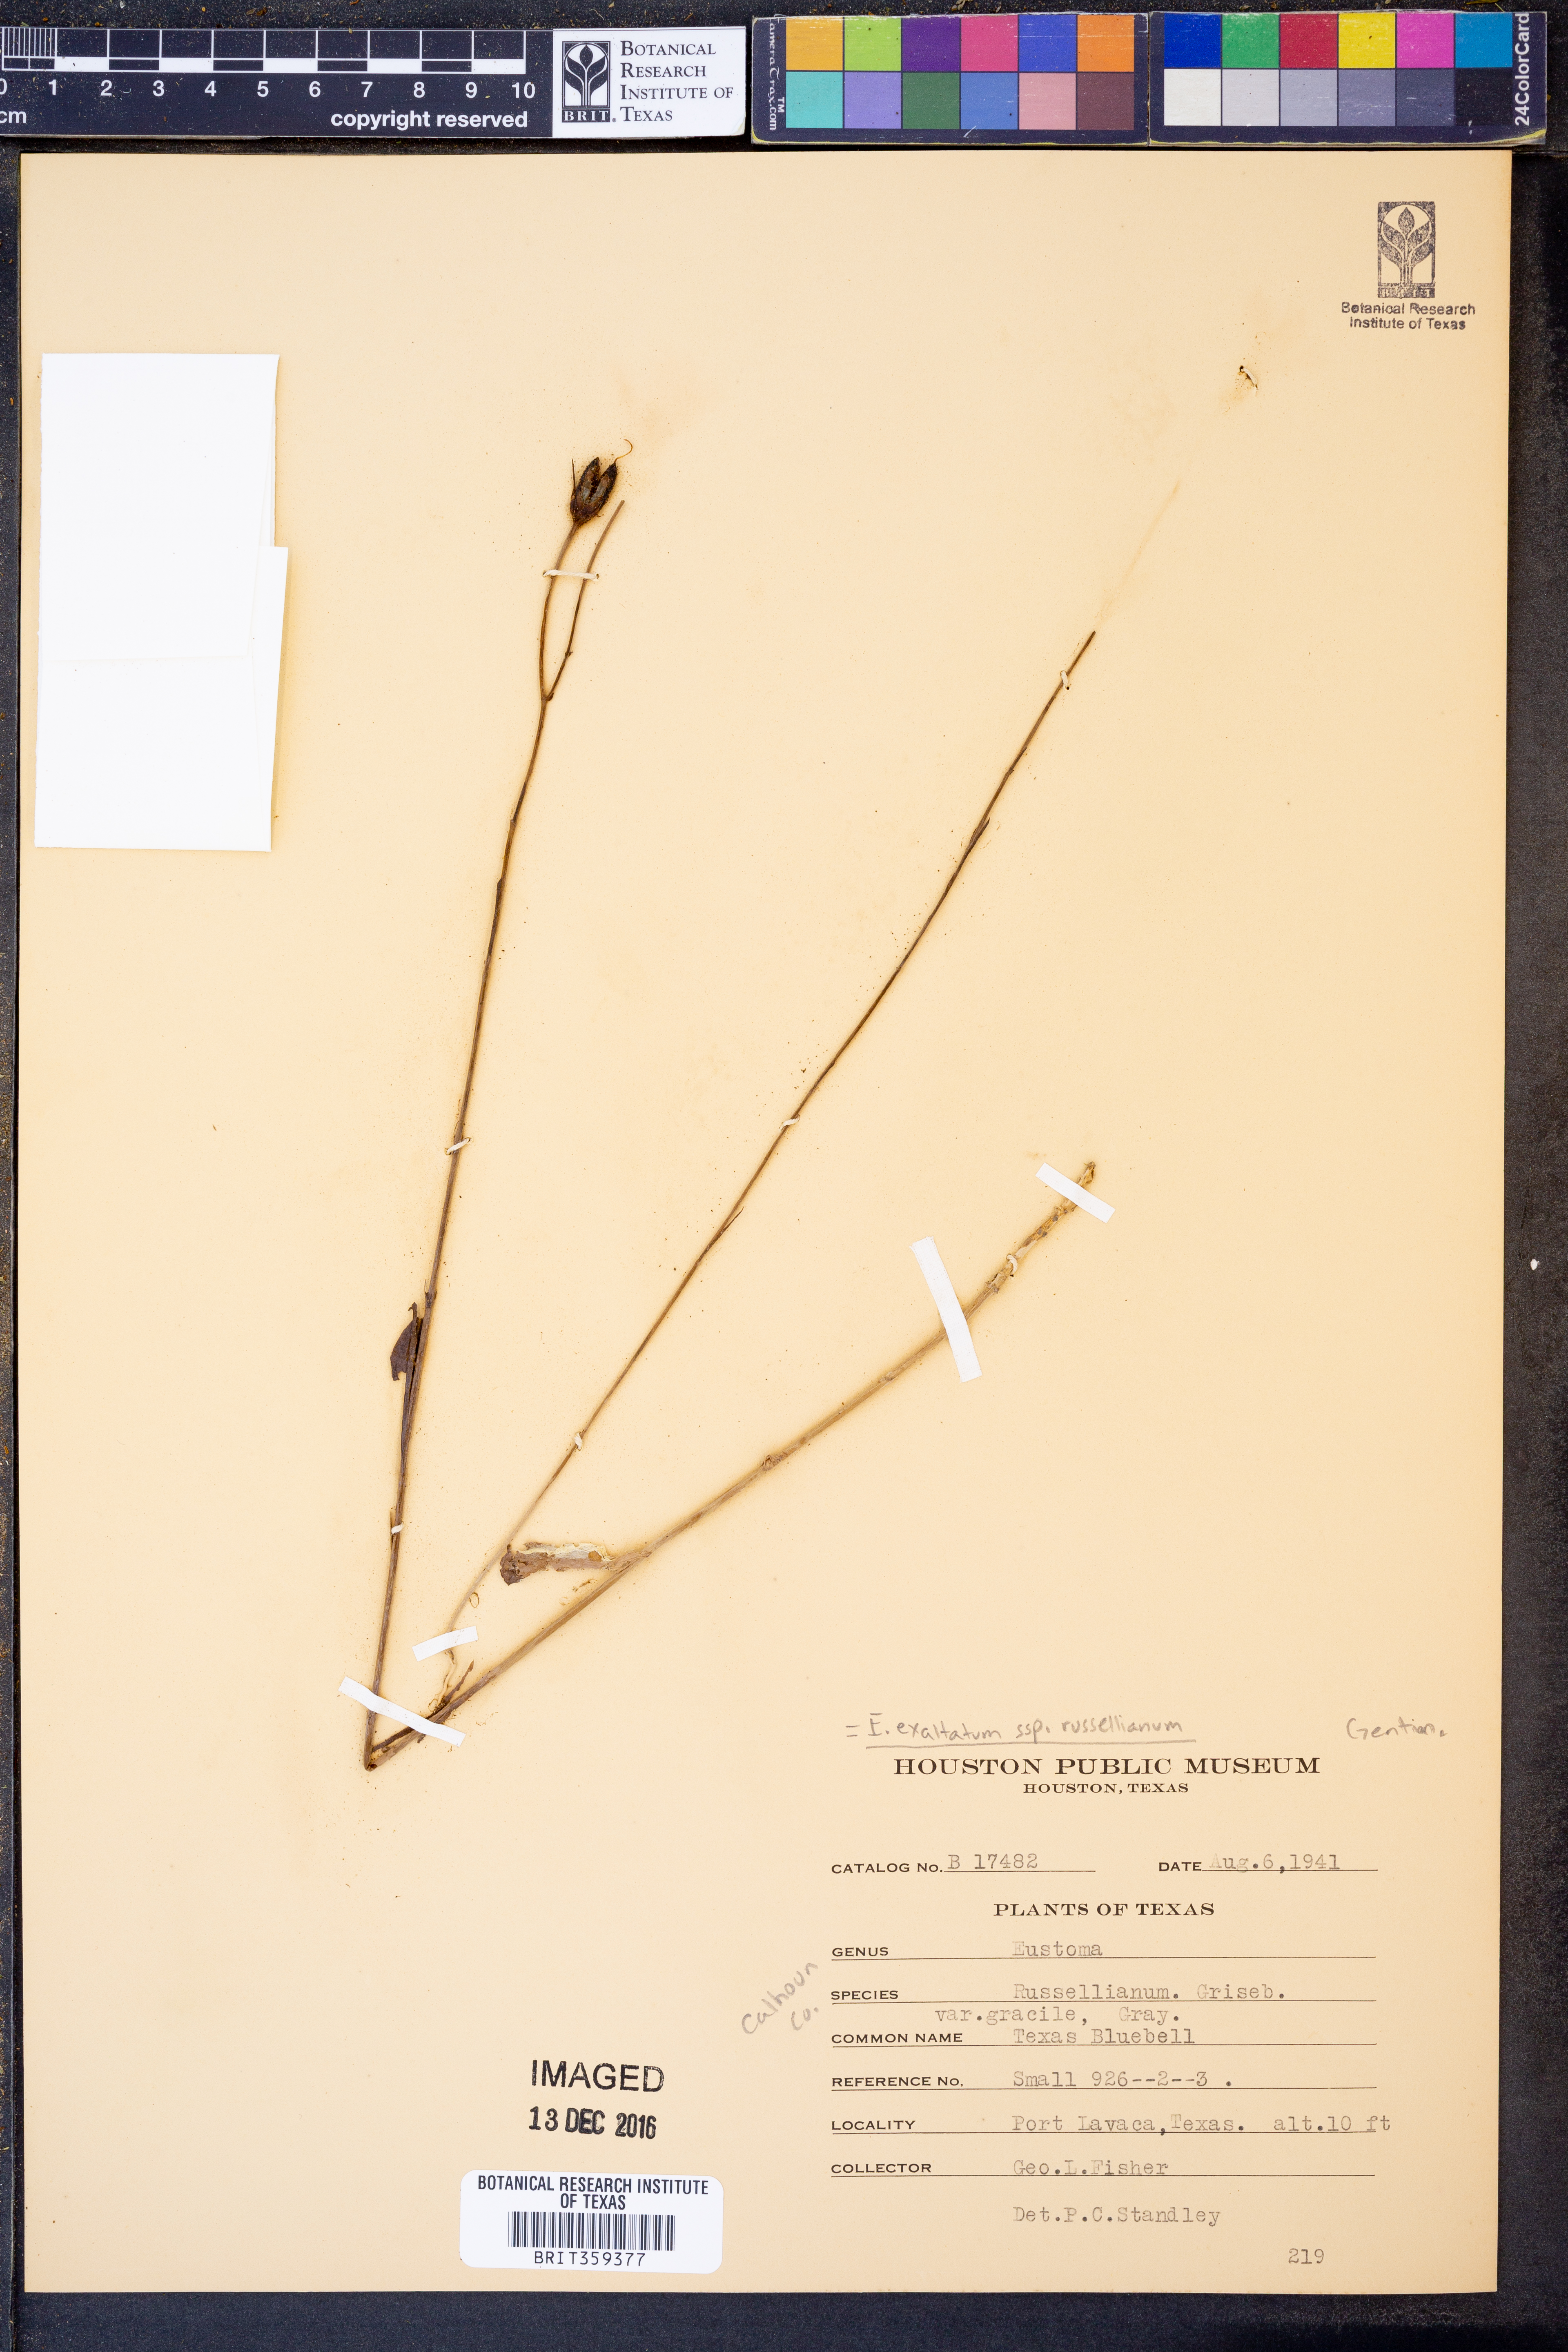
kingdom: Plantae
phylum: Tracheophyta
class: Magnoliopsida
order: Gentianales
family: Gentianaceae
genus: Eustoma
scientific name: Eustoma russellianum
